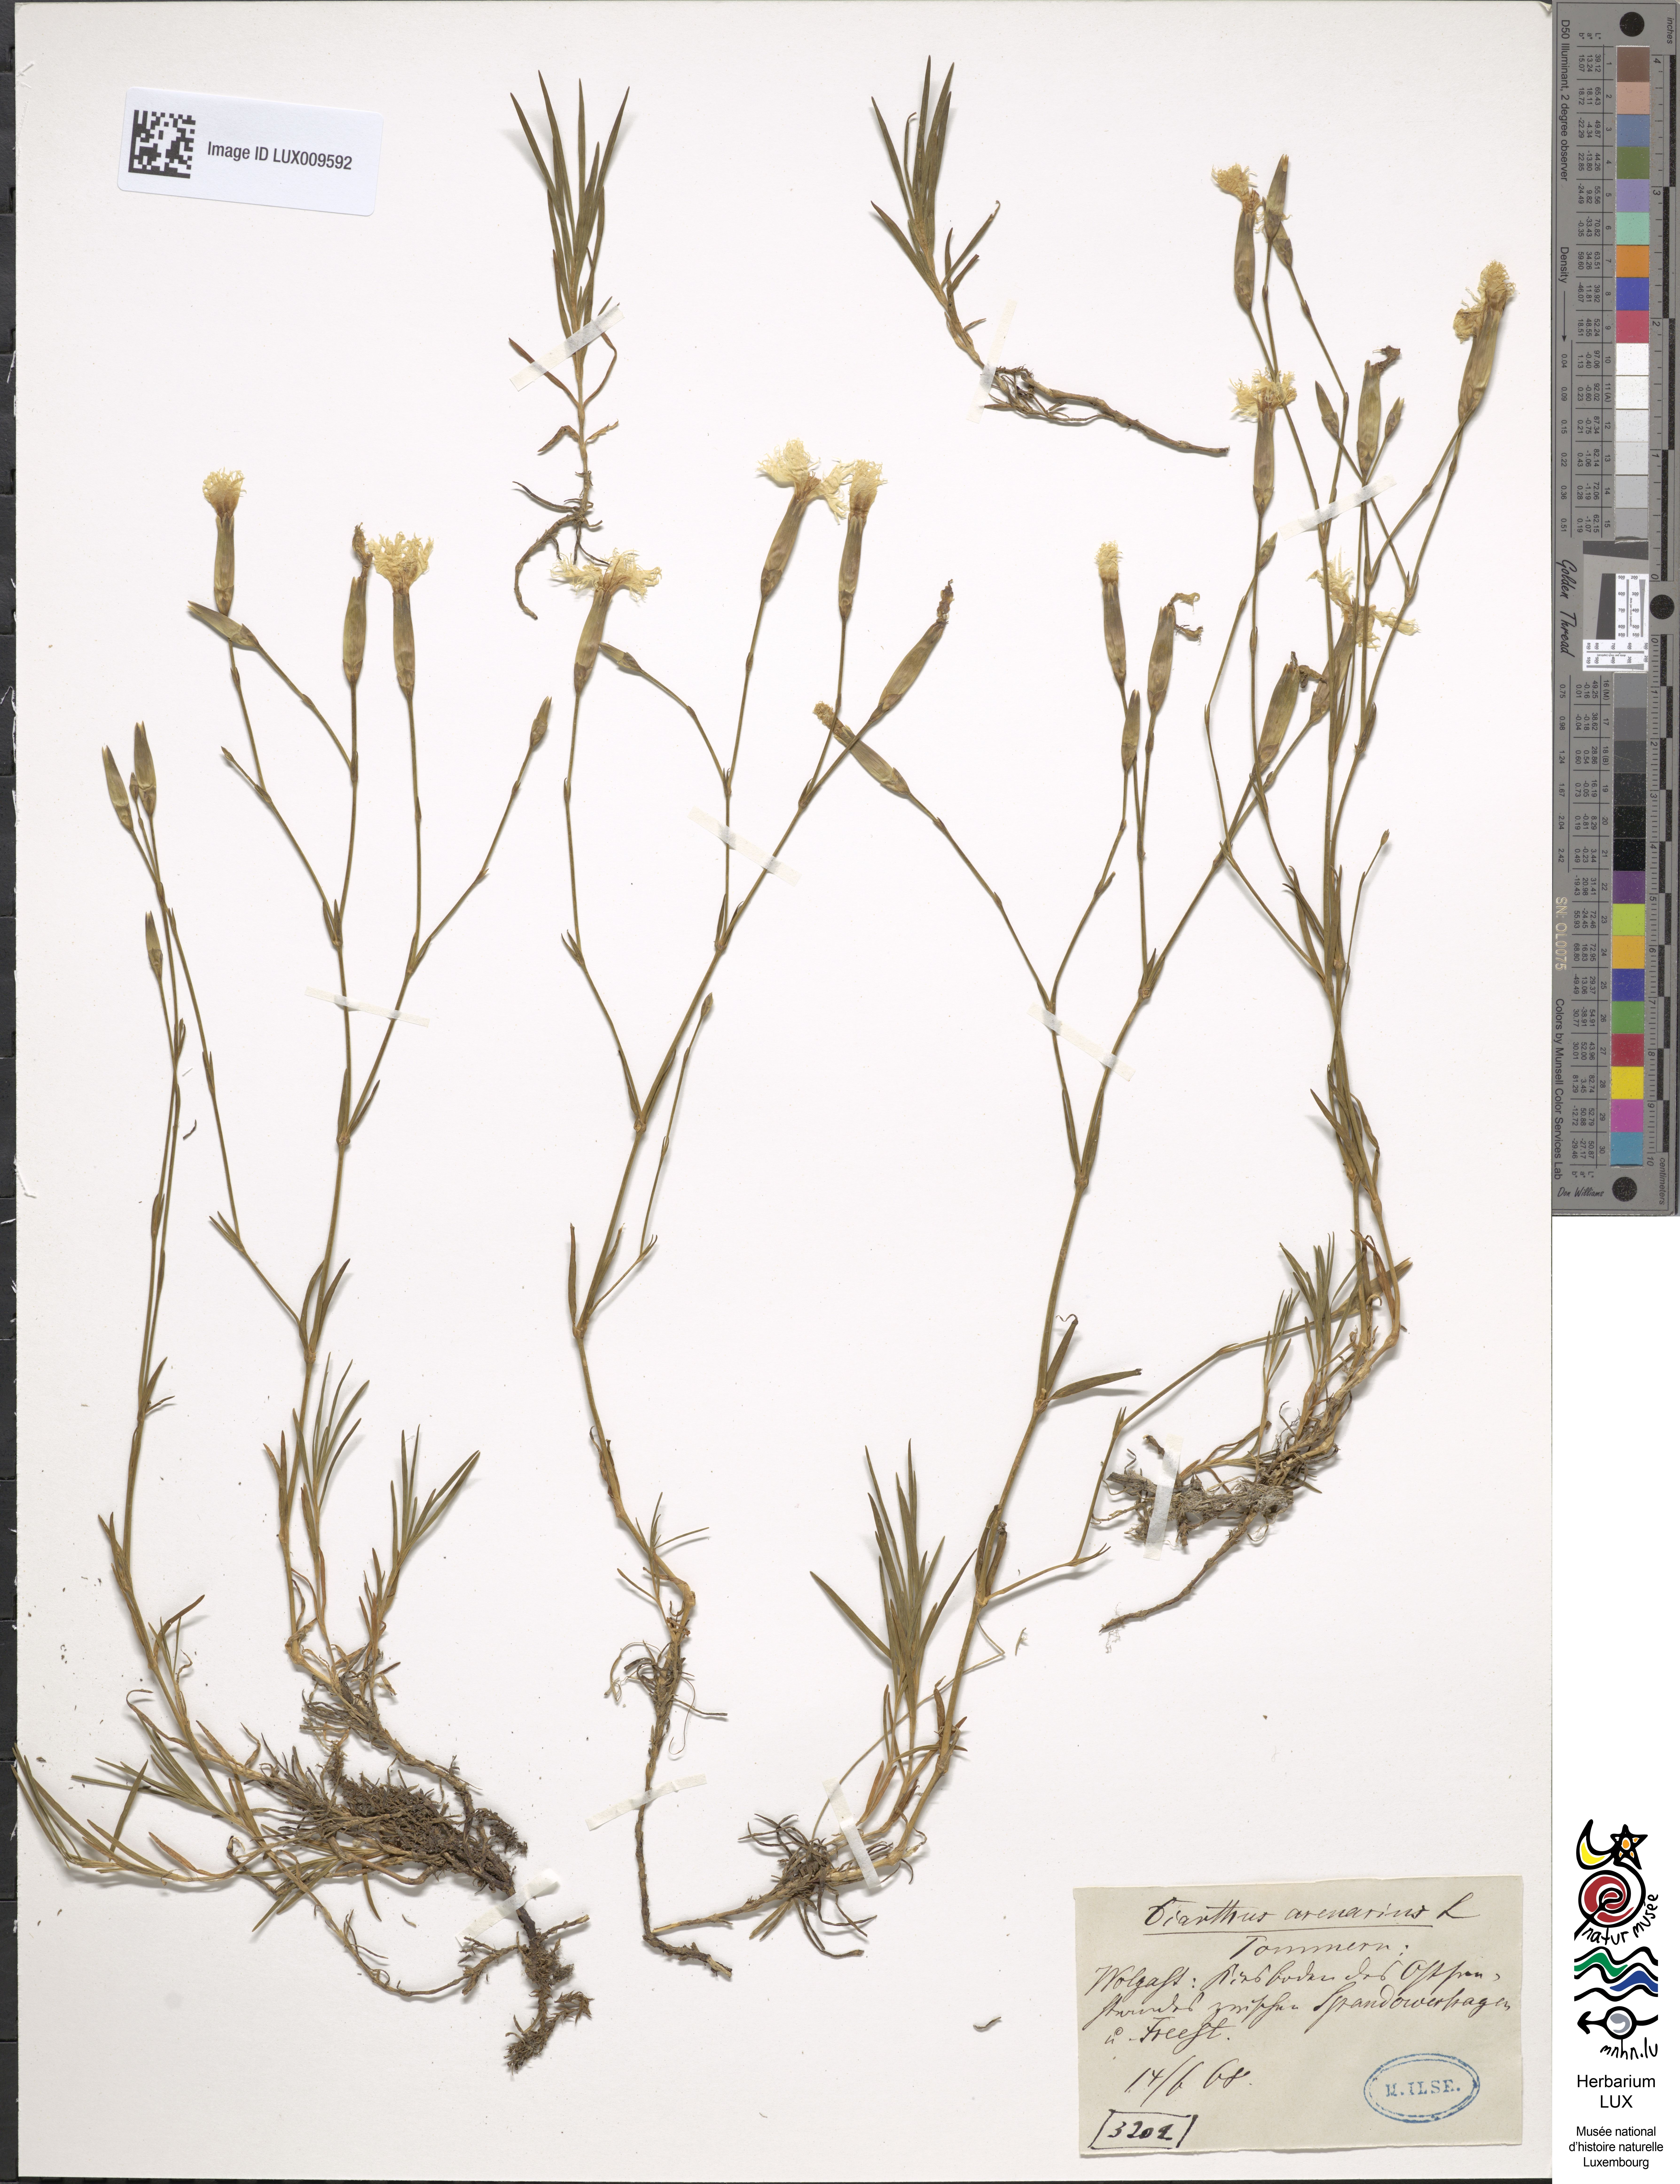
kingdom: Plantae
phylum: Tracheophyta
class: Magnoliopsida
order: Caryophyllales
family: Caryophyllaceae
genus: Dianthus
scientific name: Dianthus arenarius
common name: Stone pink
